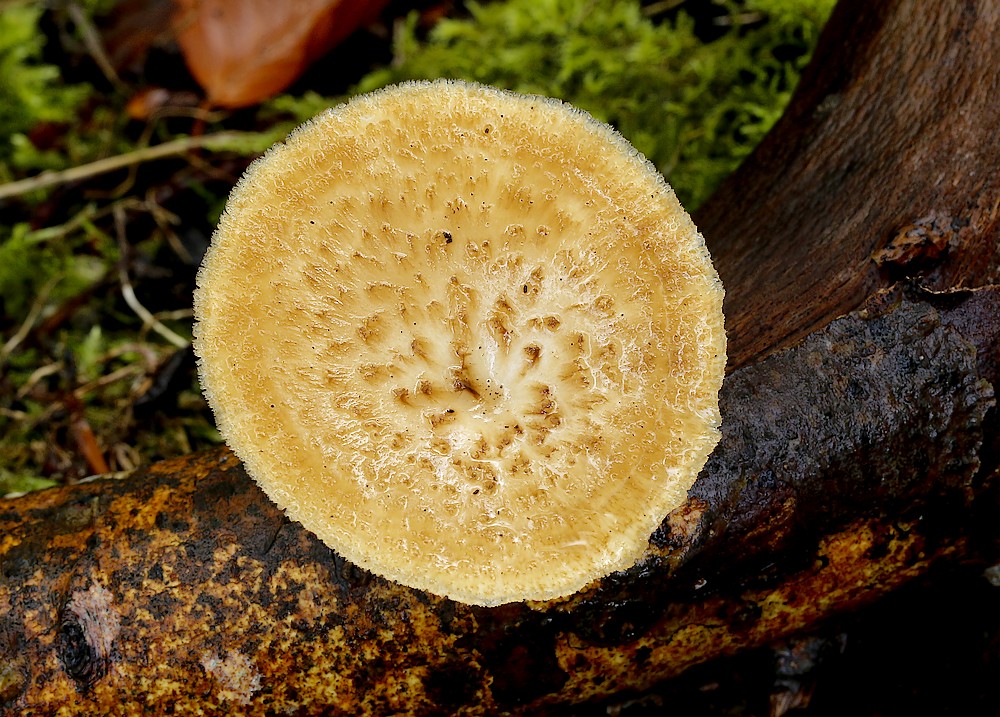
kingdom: Fungi
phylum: Basidiomycota
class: Agaricomycetes
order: Polyporales
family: Polyporaceae
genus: Polyporus
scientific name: Polyporus tuberaster
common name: knoldet stilkporesvamp
